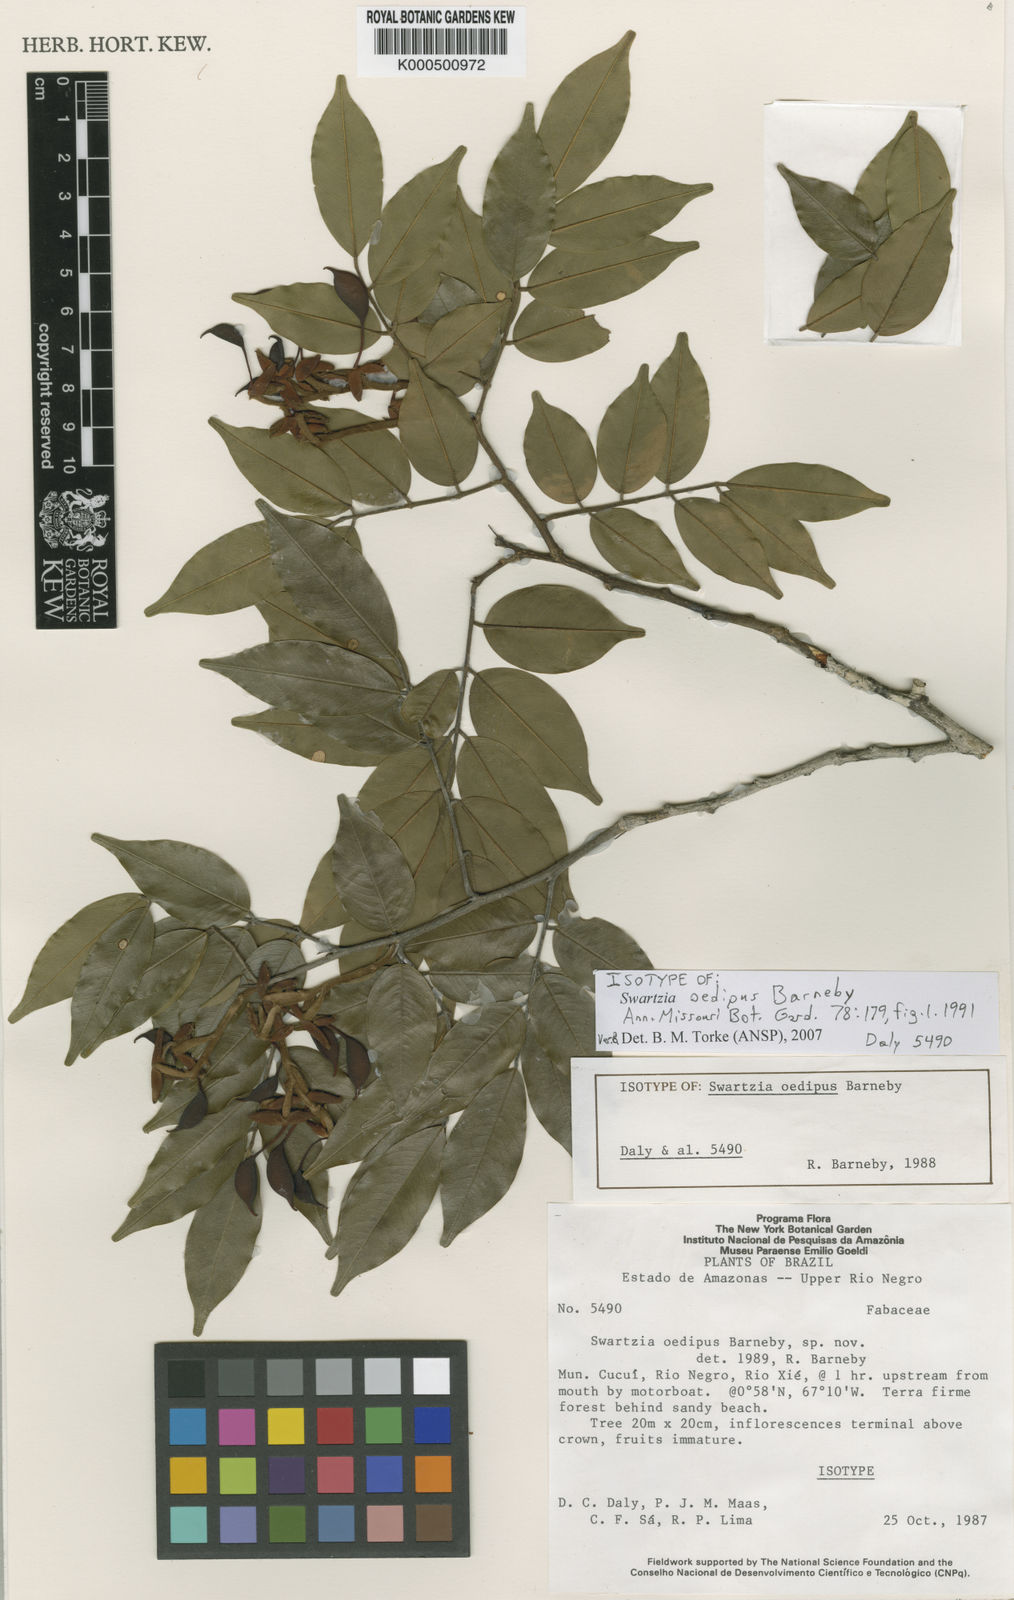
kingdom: Plantae
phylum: Tracheophyta
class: Magnoliopsida
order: Fabales
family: Fabaceae
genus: Swartzia
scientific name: Swartzia oedipus
